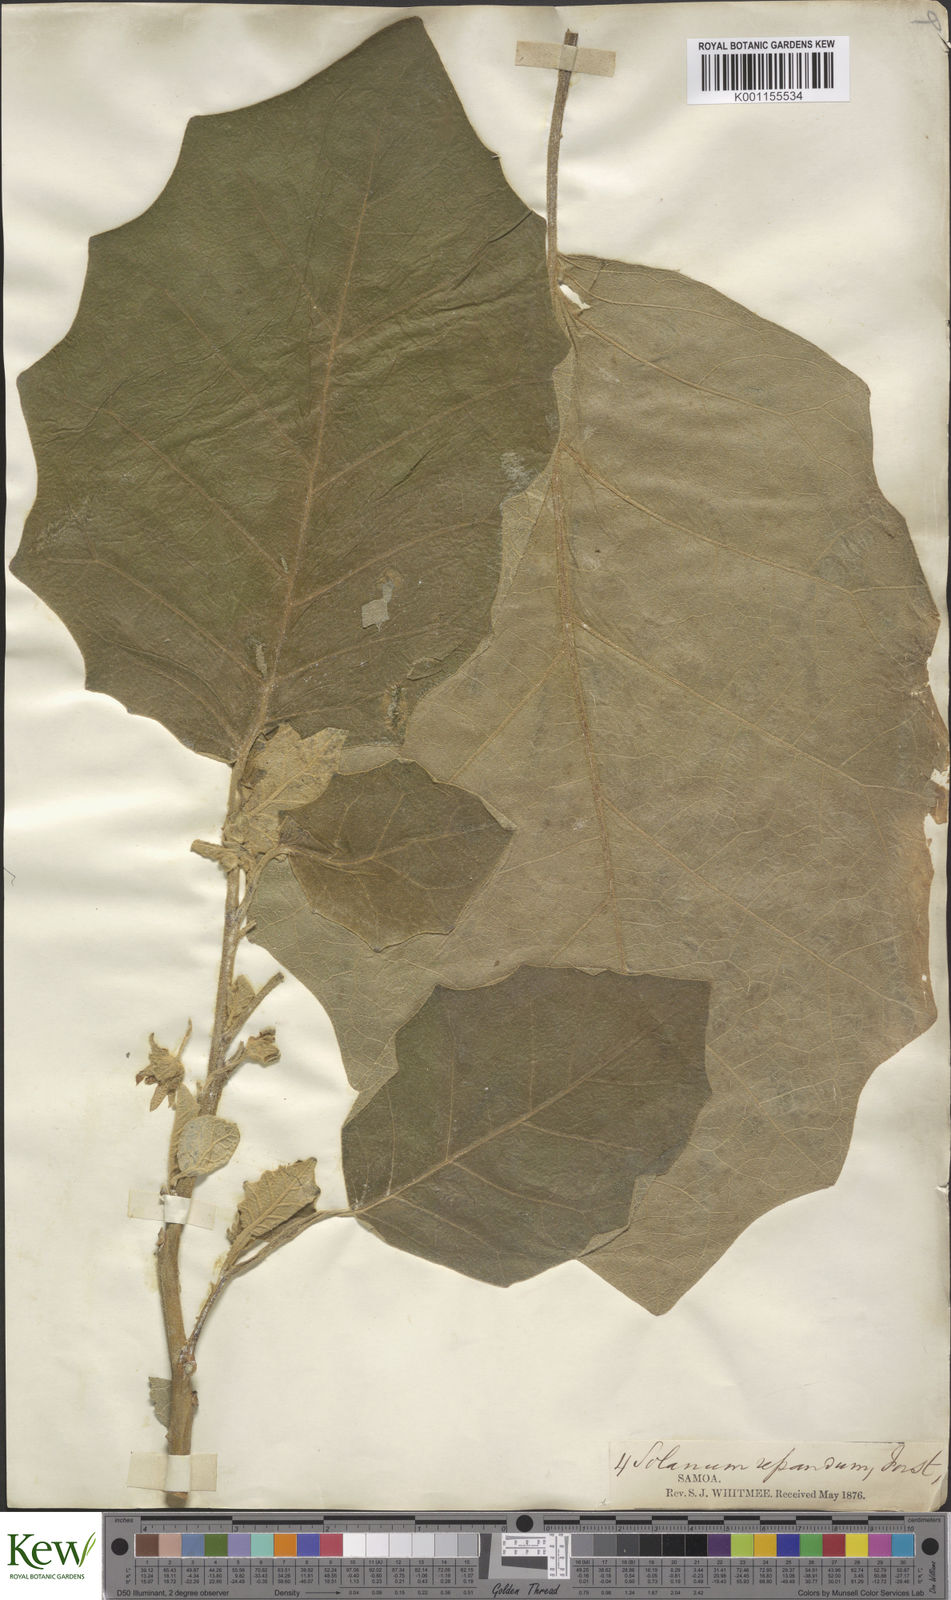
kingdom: Plantae
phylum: Tracheophyta
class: Magnoliopsida
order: Solanales
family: Solanaceae
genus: Solanum
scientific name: Solanum repandum
